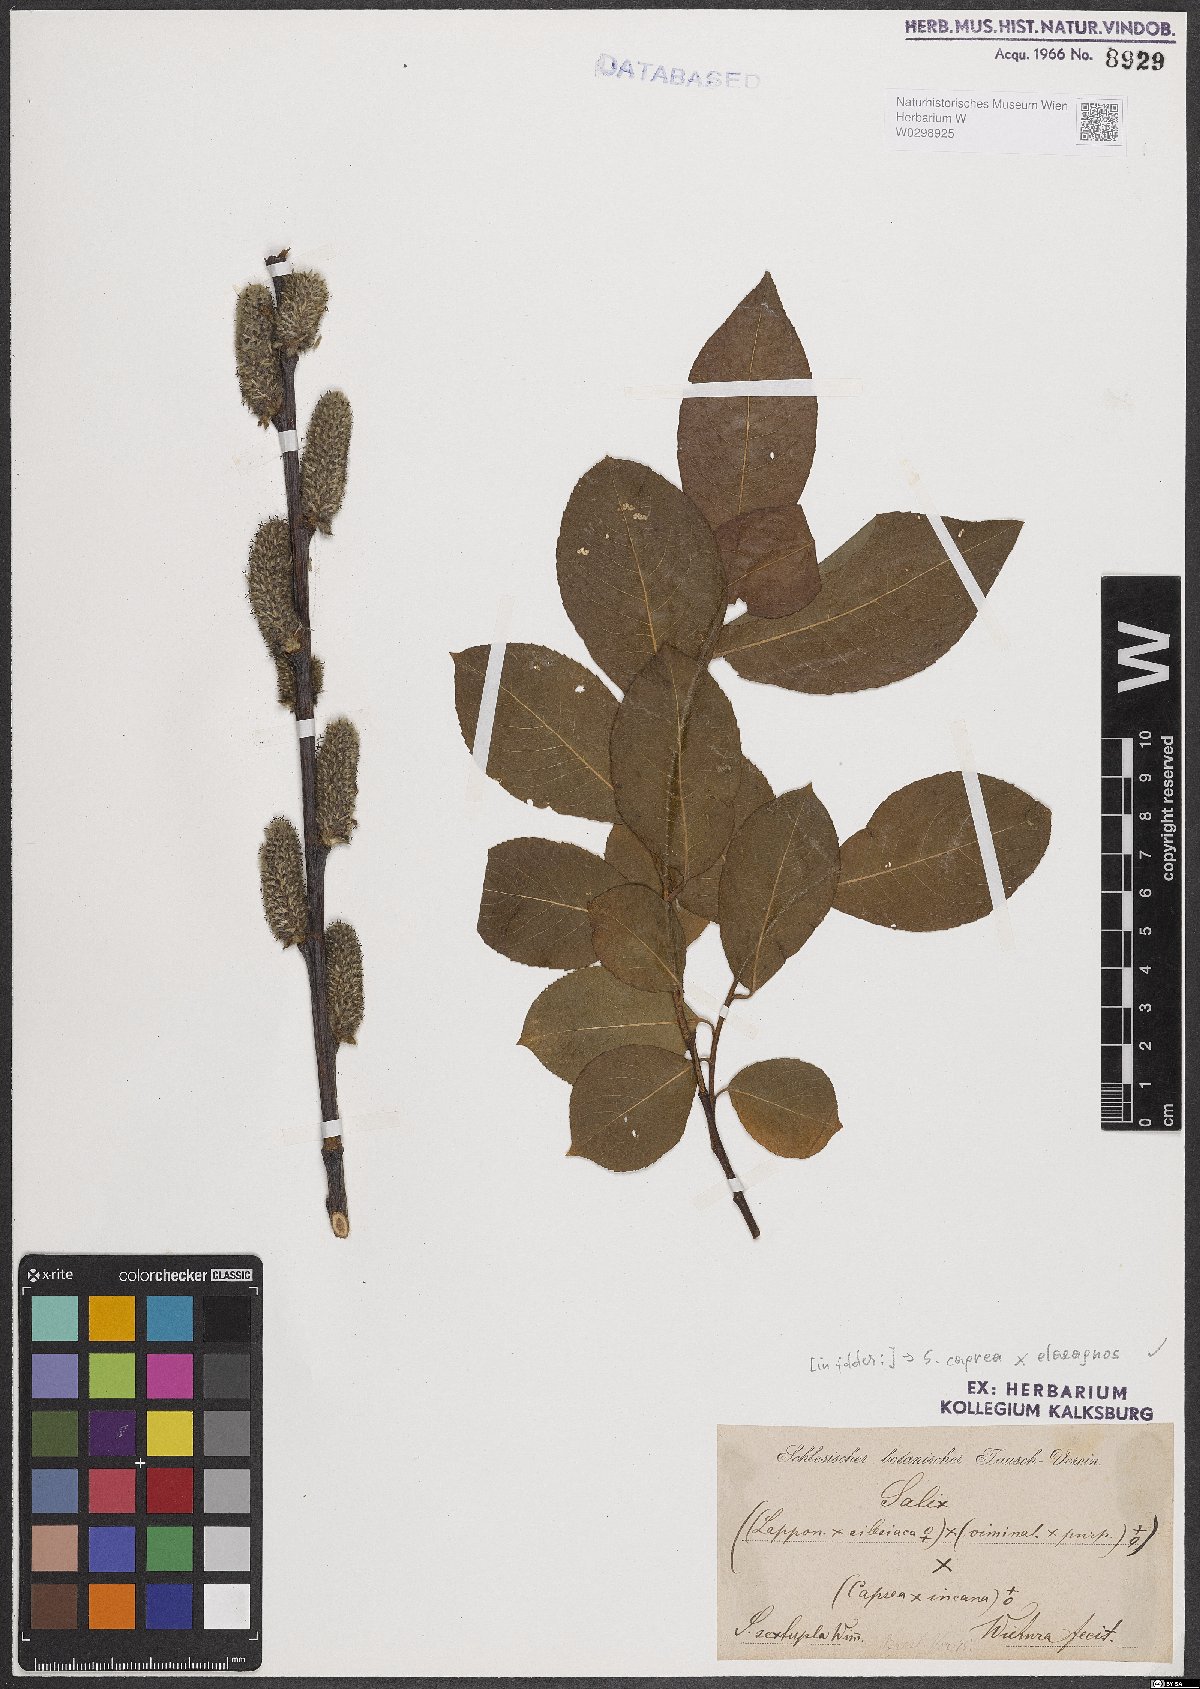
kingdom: Plantae
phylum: Tracheophyta
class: Magnoliopsida
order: Malpighiales
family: Salicaceae
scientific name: Salicaceae
